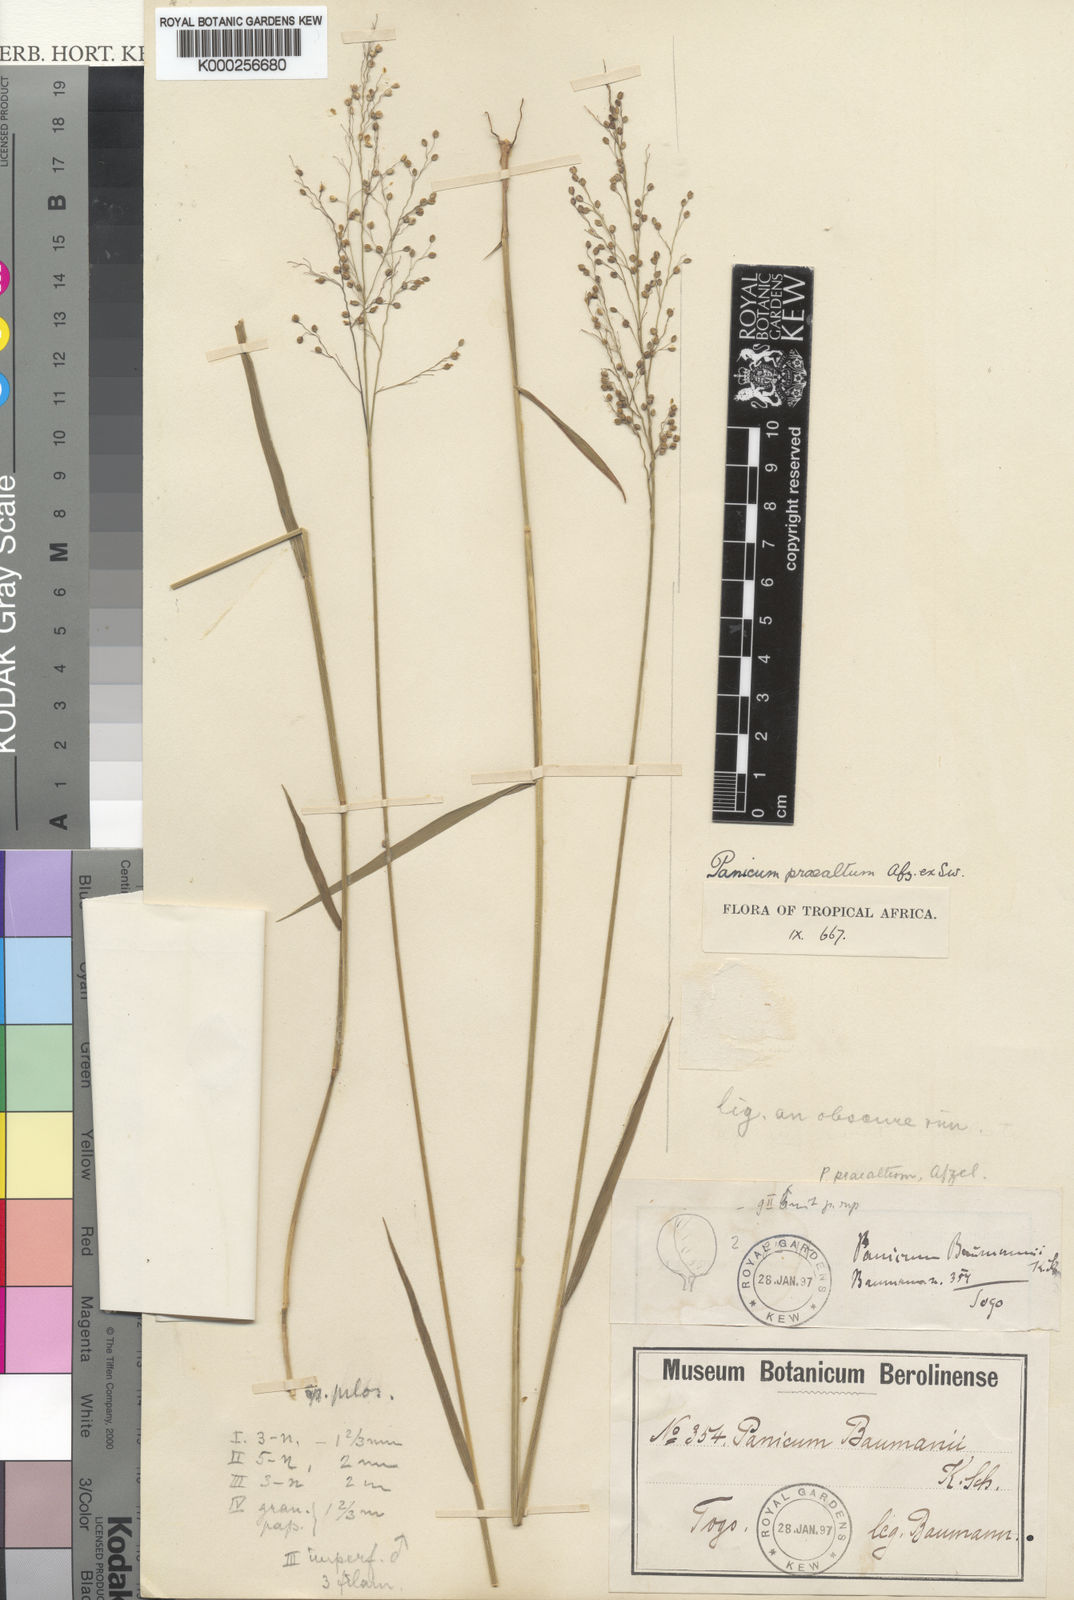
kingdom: Plantae
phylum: Tracheophyta
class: Liliopsida
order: Poales
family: Poaceae
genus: Trichanthecium
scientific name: Trichanthecium nervatum
